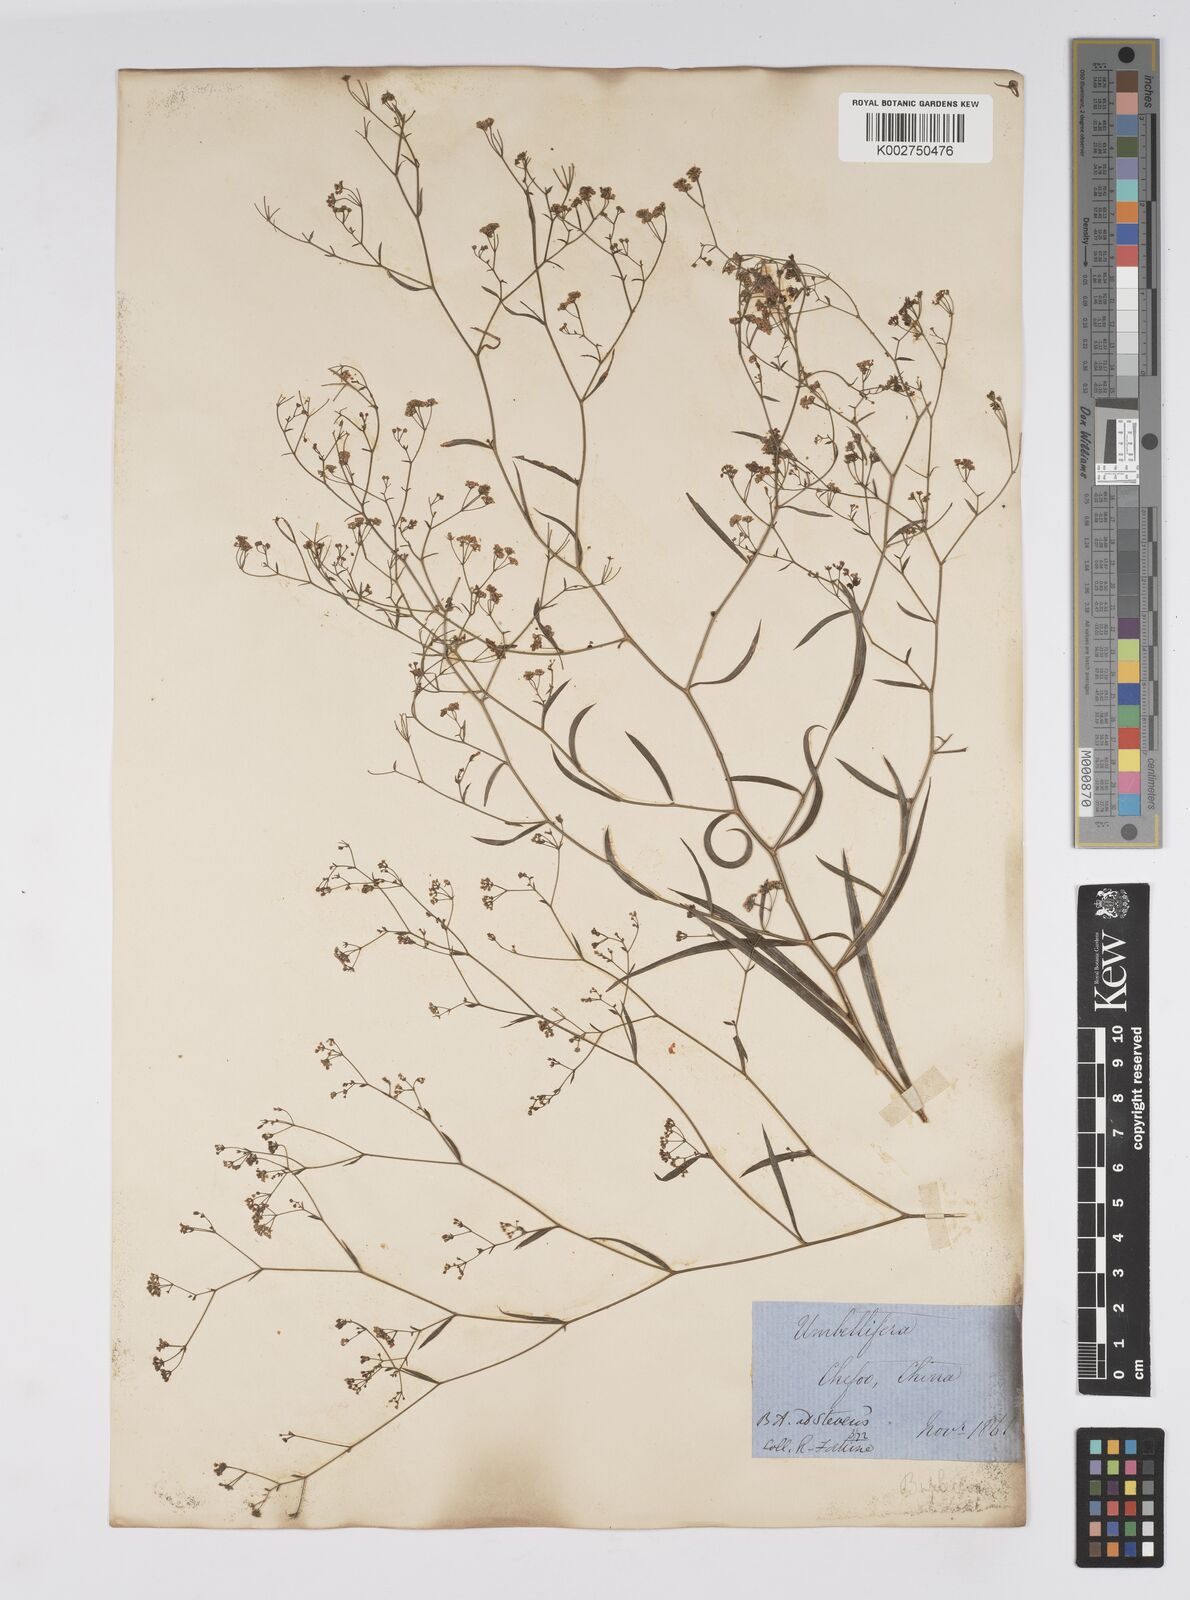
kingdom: Plantae
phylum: Tracheophyta
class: Magnoliopsida
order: Apiales
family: Apiaceae
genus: Bupleurum
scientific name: Bupleurum krylovianum
